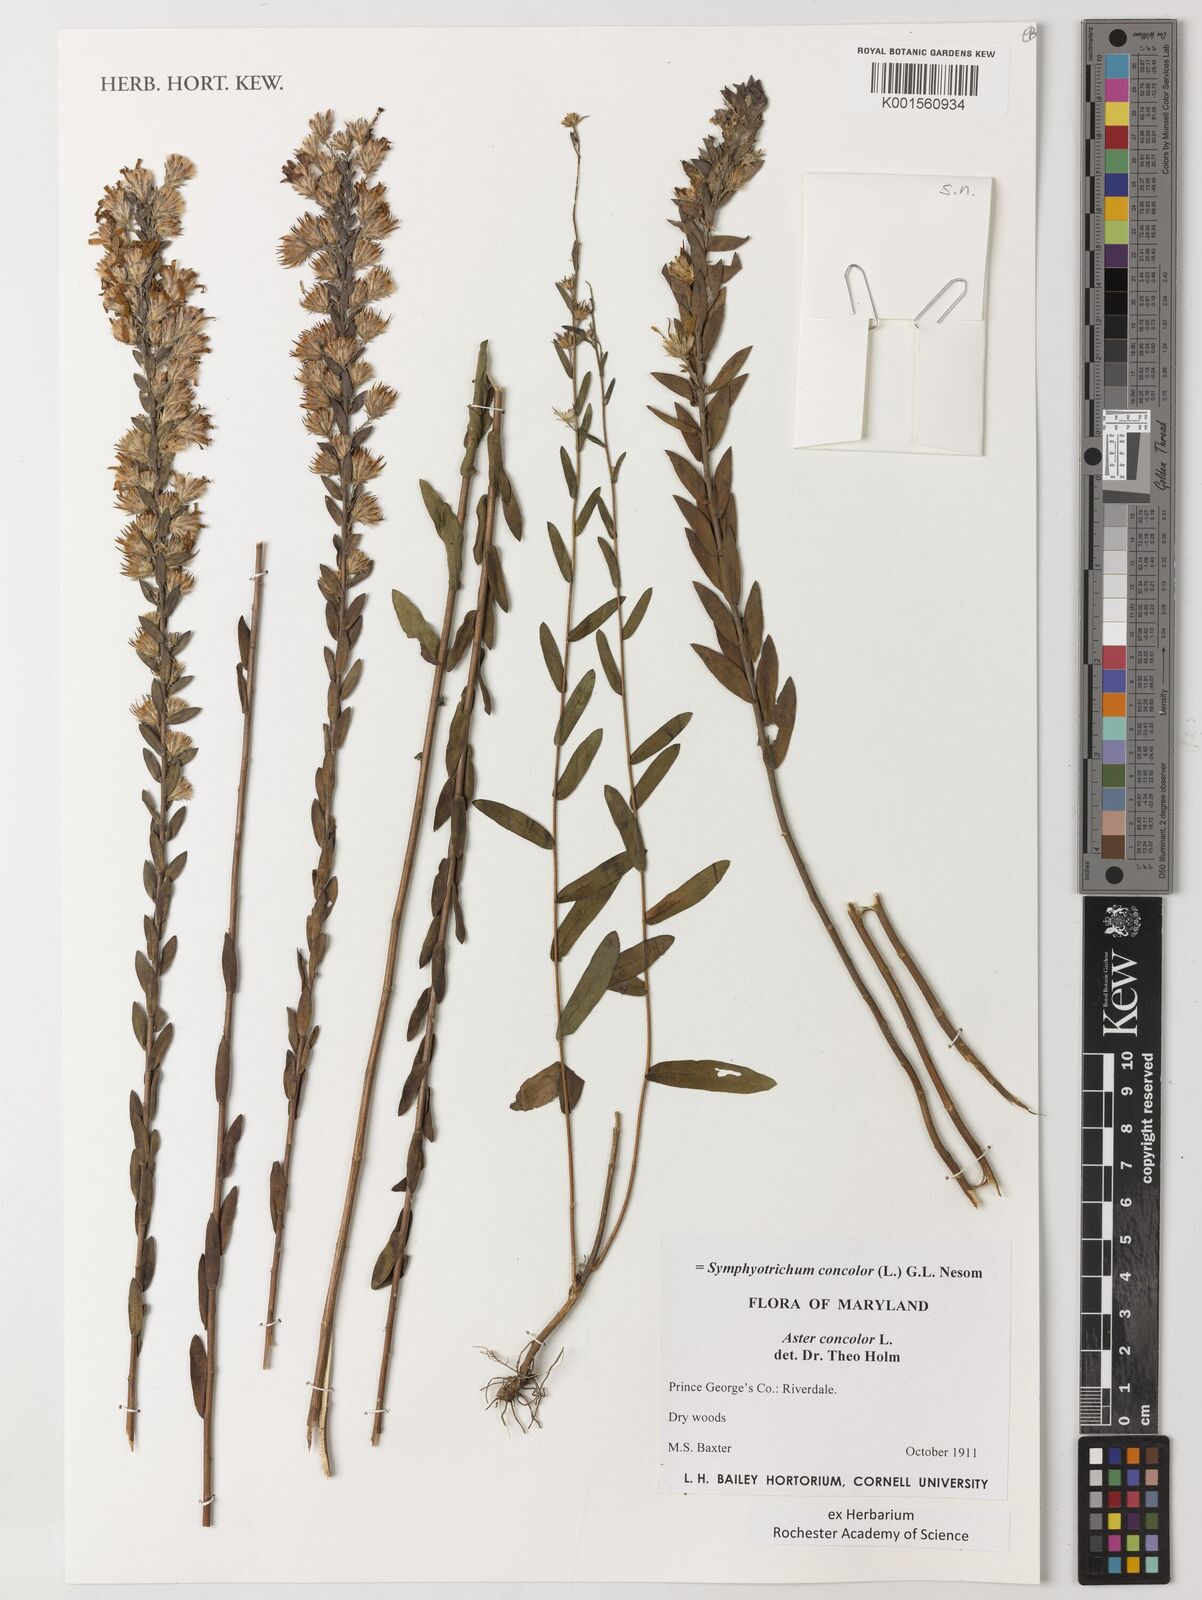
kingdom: Plantae
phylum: Tracheophyta
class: Magnoliopsida
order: Asterales
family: Asteraceae
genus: Symphyotrichum
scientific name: Symphyotrichum concolor
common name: Eastern silver aster
